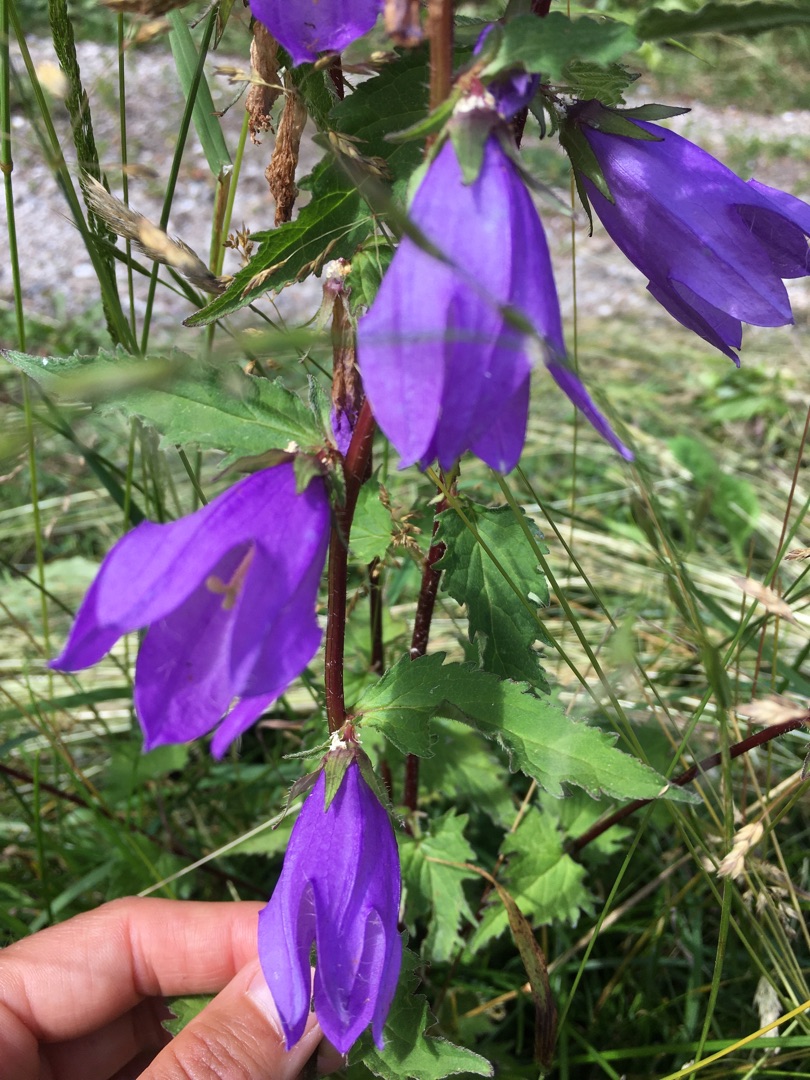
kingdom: Plantae
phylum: Tracheophyta
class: Magnoliopsida
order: Asterales
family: Campanulaceae
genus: Campanula
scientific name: Campanula trachelium
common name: Nælde-klokke
